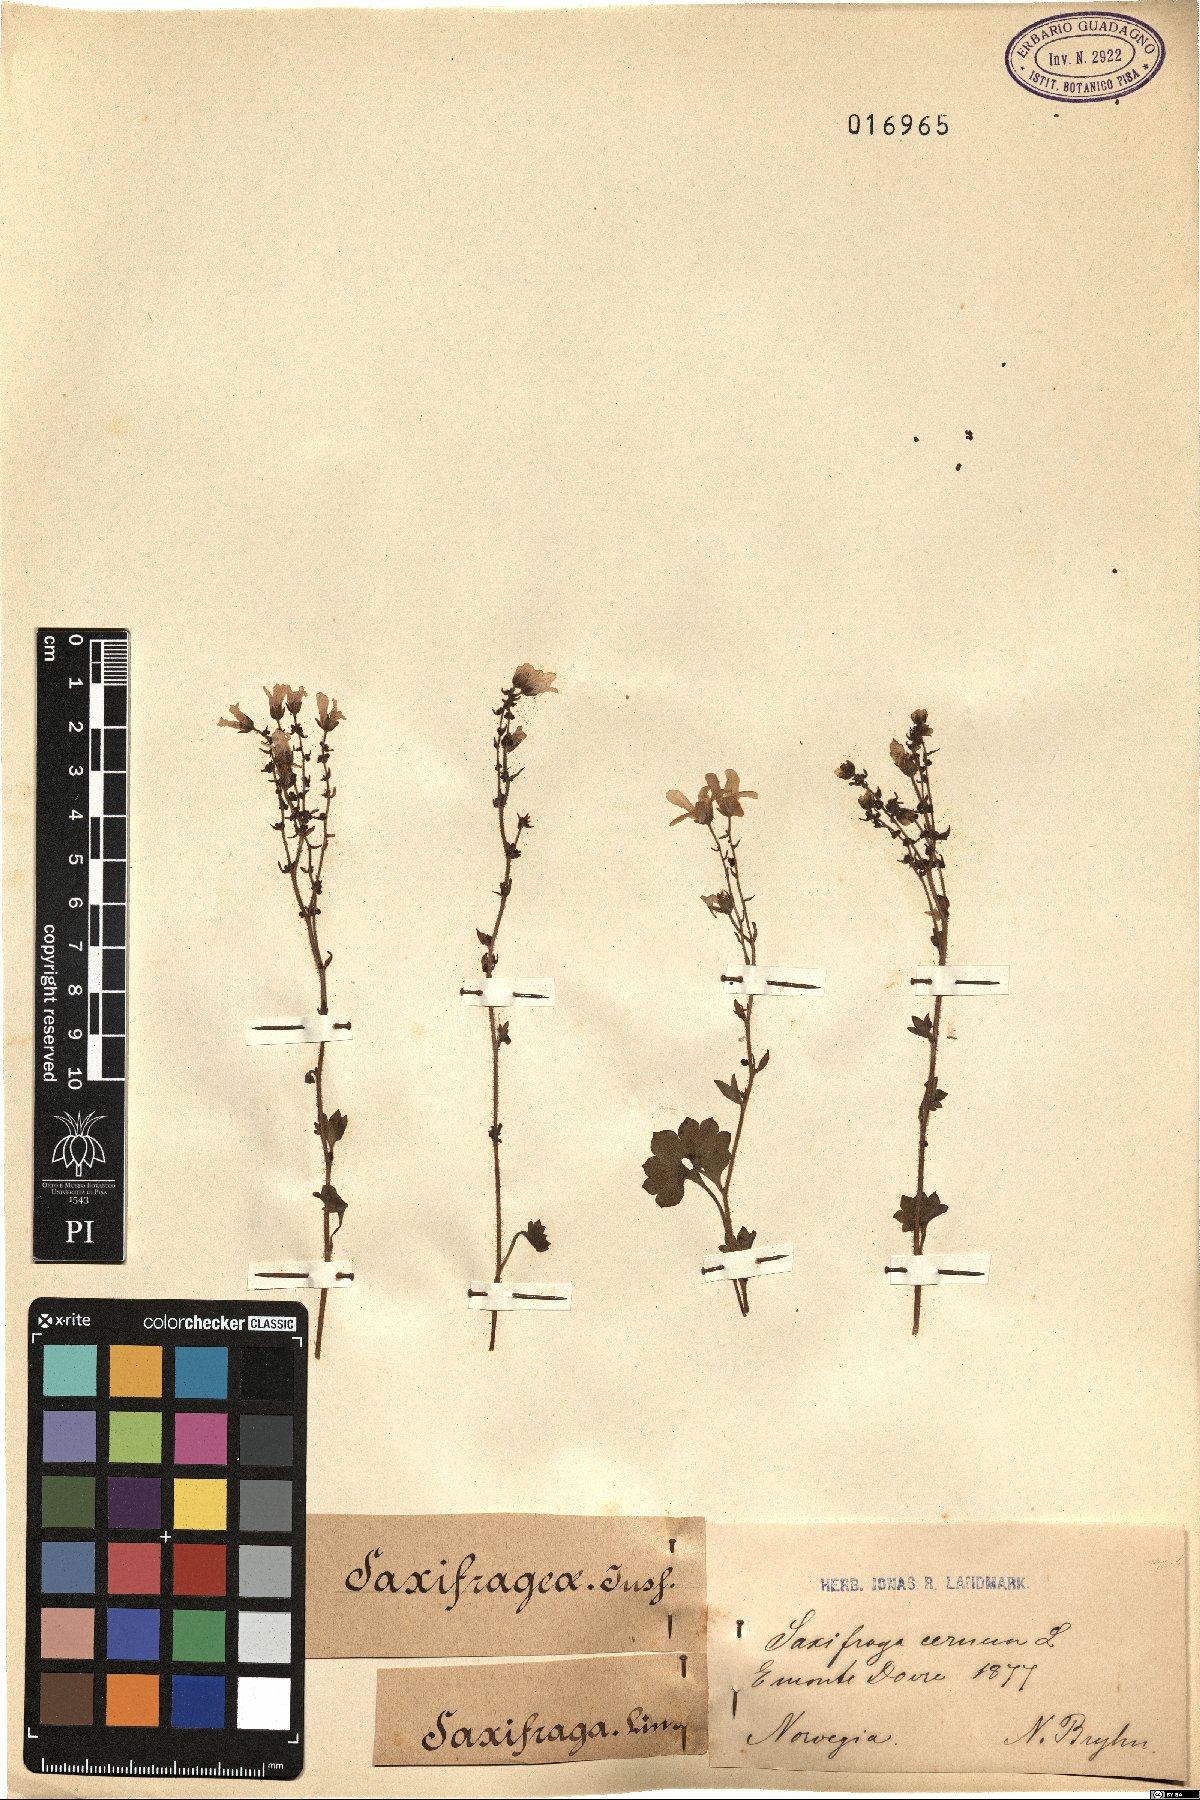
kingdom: Plantae
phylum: Tracheophyta
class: Magnoliopsida
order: Saxifragales
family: Saxifragaceae
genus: Saxifraga
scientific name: Saxifraga cernua
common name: Drooping saxifrage
